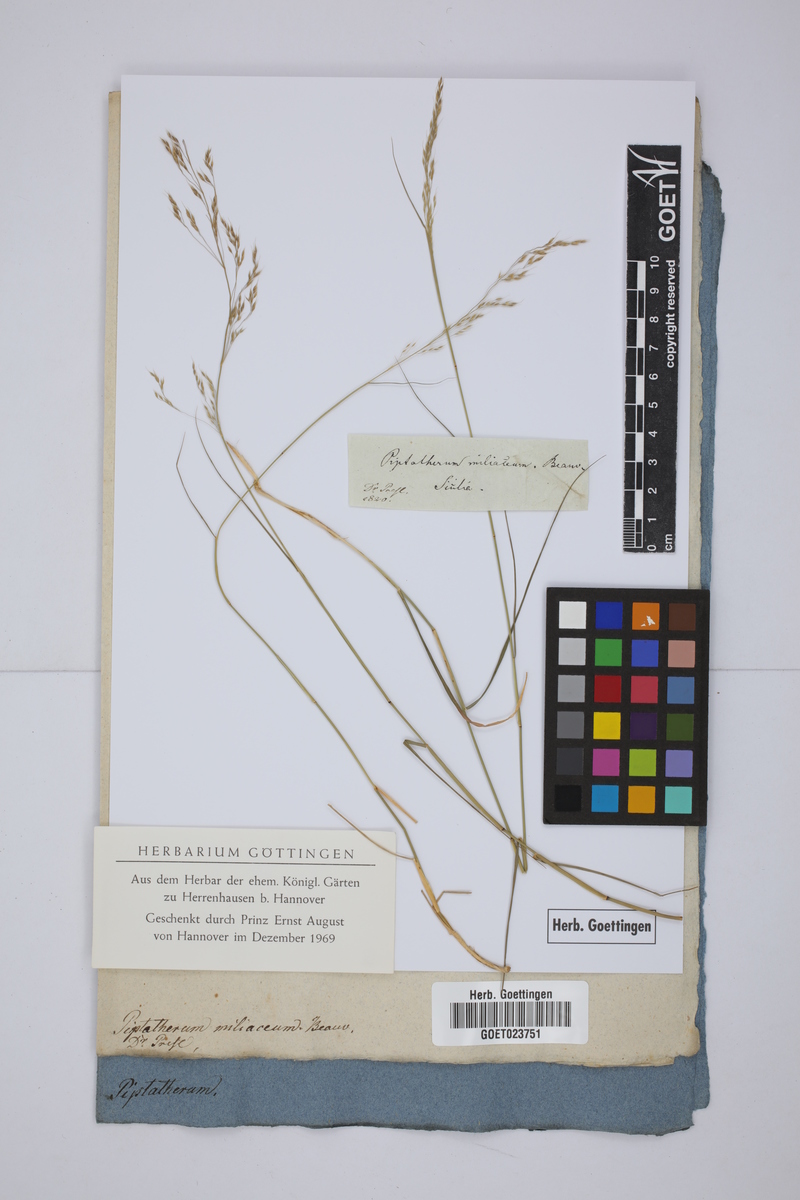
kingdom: Plantae
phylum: Tracheophyta
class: Liliopsida
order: Poales
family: Poaceae
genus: Oloptum
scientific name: Oloptum miliaceum
